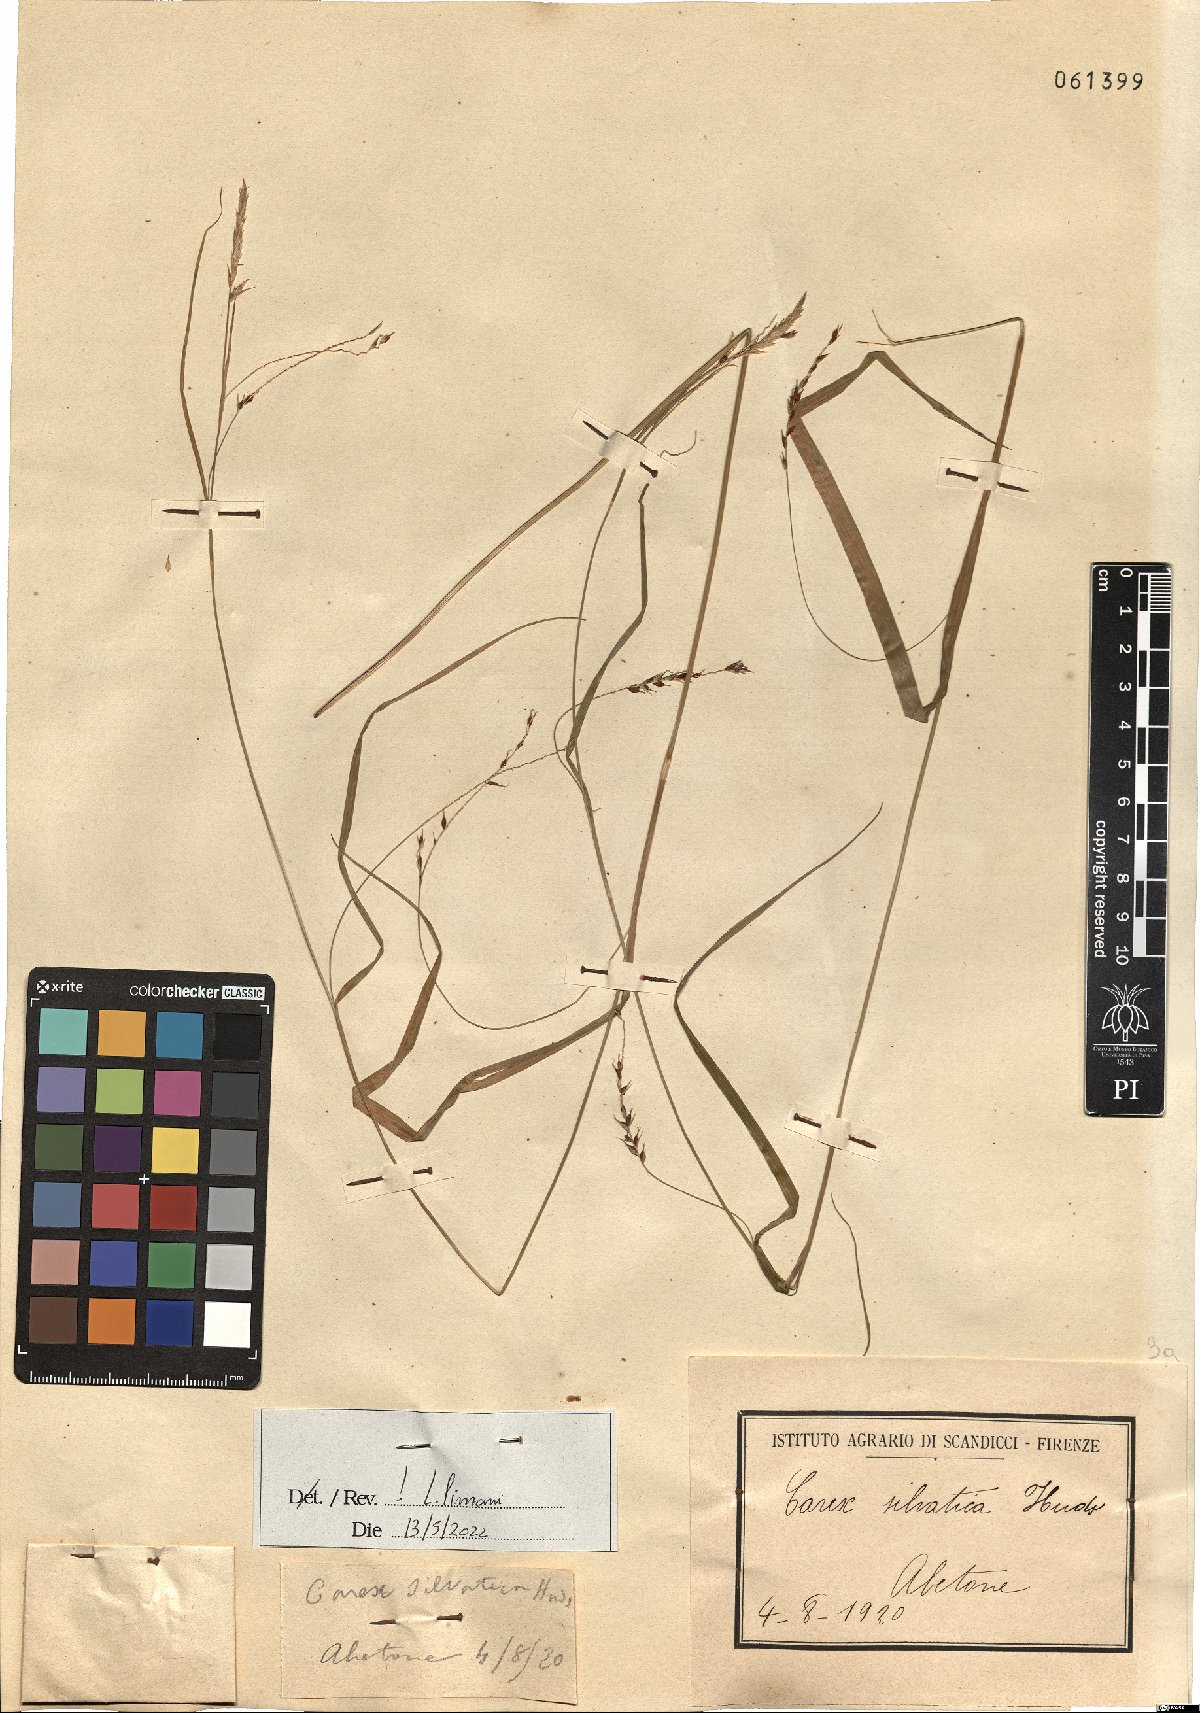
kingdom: Plantae
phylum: Tracheophyta
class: Liliopsida
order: Poales
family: Cyperaceae
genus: Carex
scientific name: Carex sylvatica
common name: Wood-sedge
